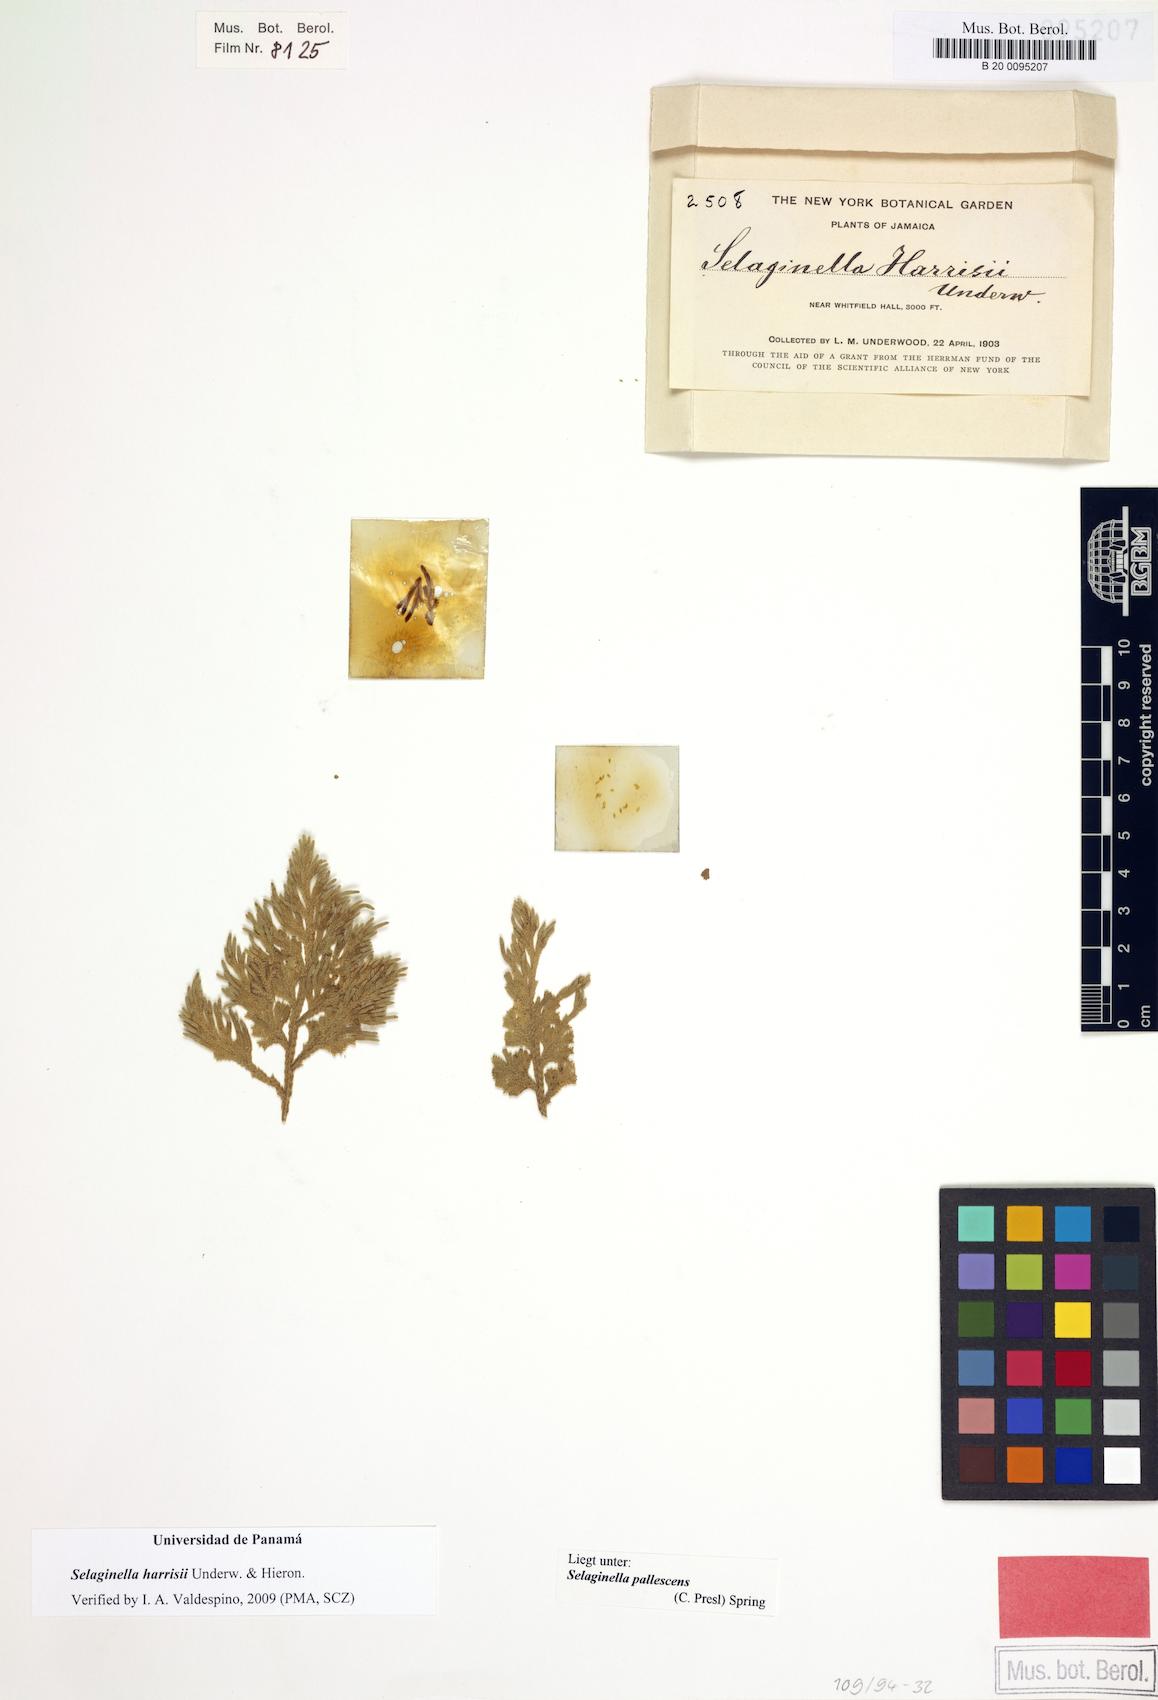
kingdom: Plantae
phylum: Tracheophyta
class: Lycopodiopsida
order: Selaginellales
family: Selaginellaceae
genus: Selaginella
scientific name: Selaginella harrisii
